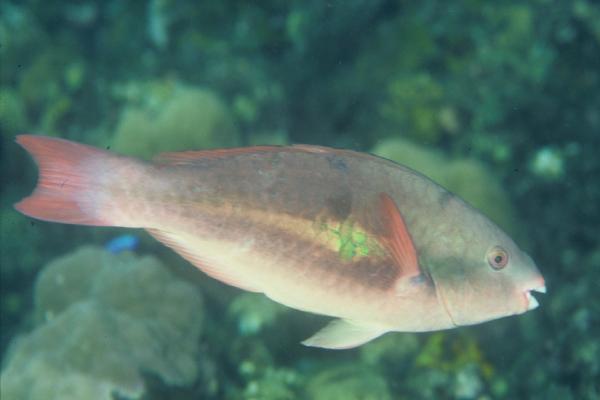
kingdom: Animalia
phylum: Chordata
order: Perciformes
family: Scaridae
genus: Scarus
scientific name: Scarus forsteni
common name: Forsten's parrotfish
